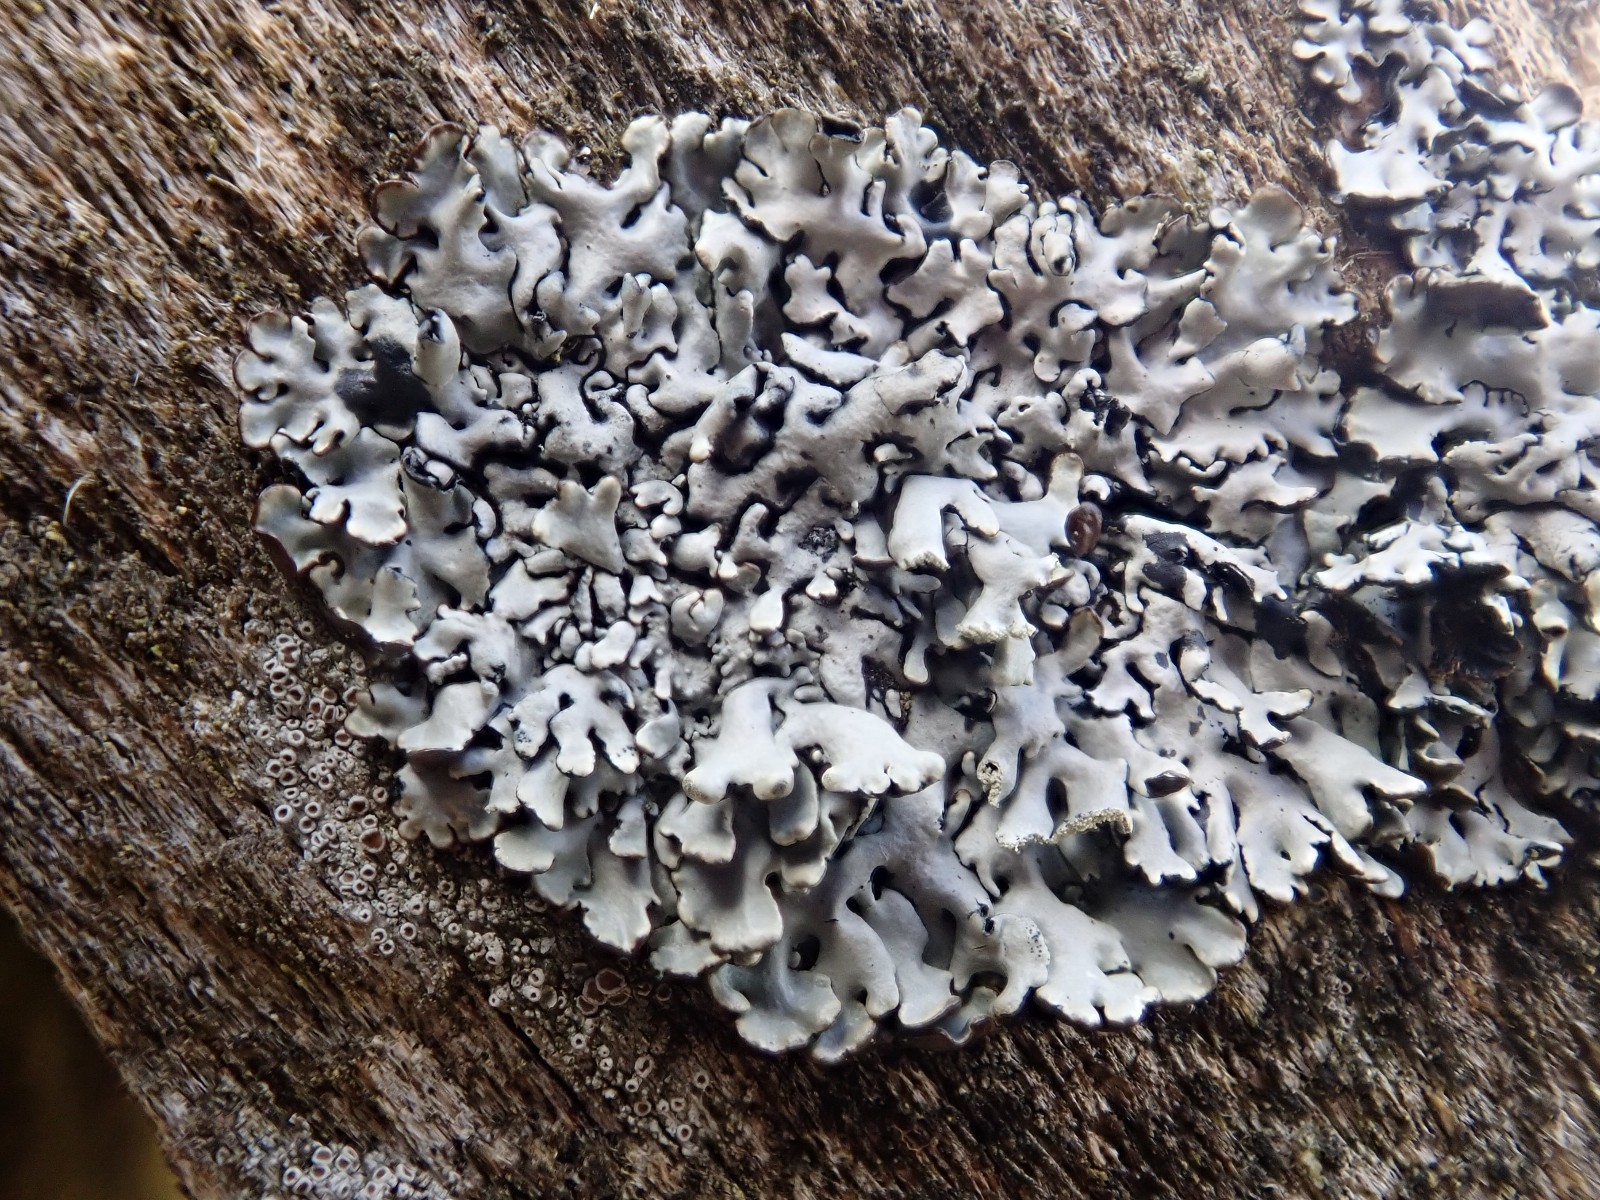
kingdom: Fungi
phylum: Ascomycota
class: Lecanoromycetes
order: Lecanorales
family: Parmeliaceae
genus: Hypogymnia
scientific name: Hypogymnia physodes
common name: almindelig kvistlav
